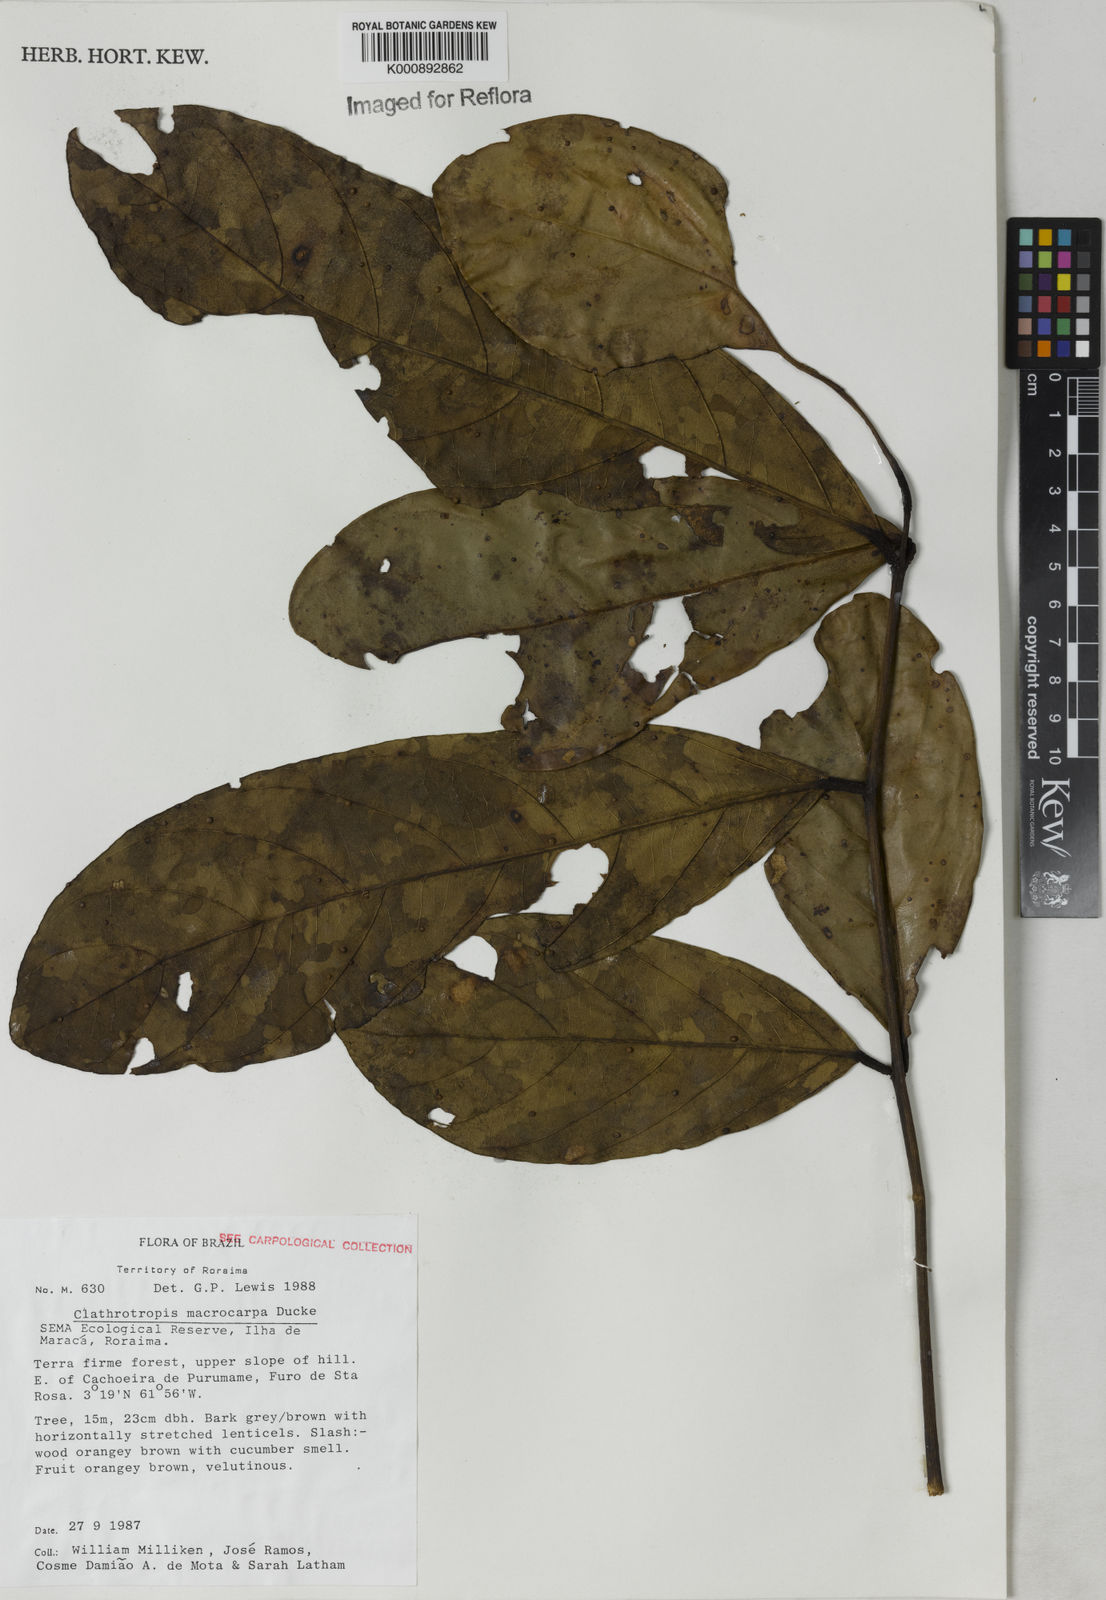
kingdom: Plantae
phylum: Tracheophyta
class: Magnoliopsida
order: Fabales
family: Fabaceae
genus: Clathrotropis
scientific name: Clathrotropis macrocarpa
